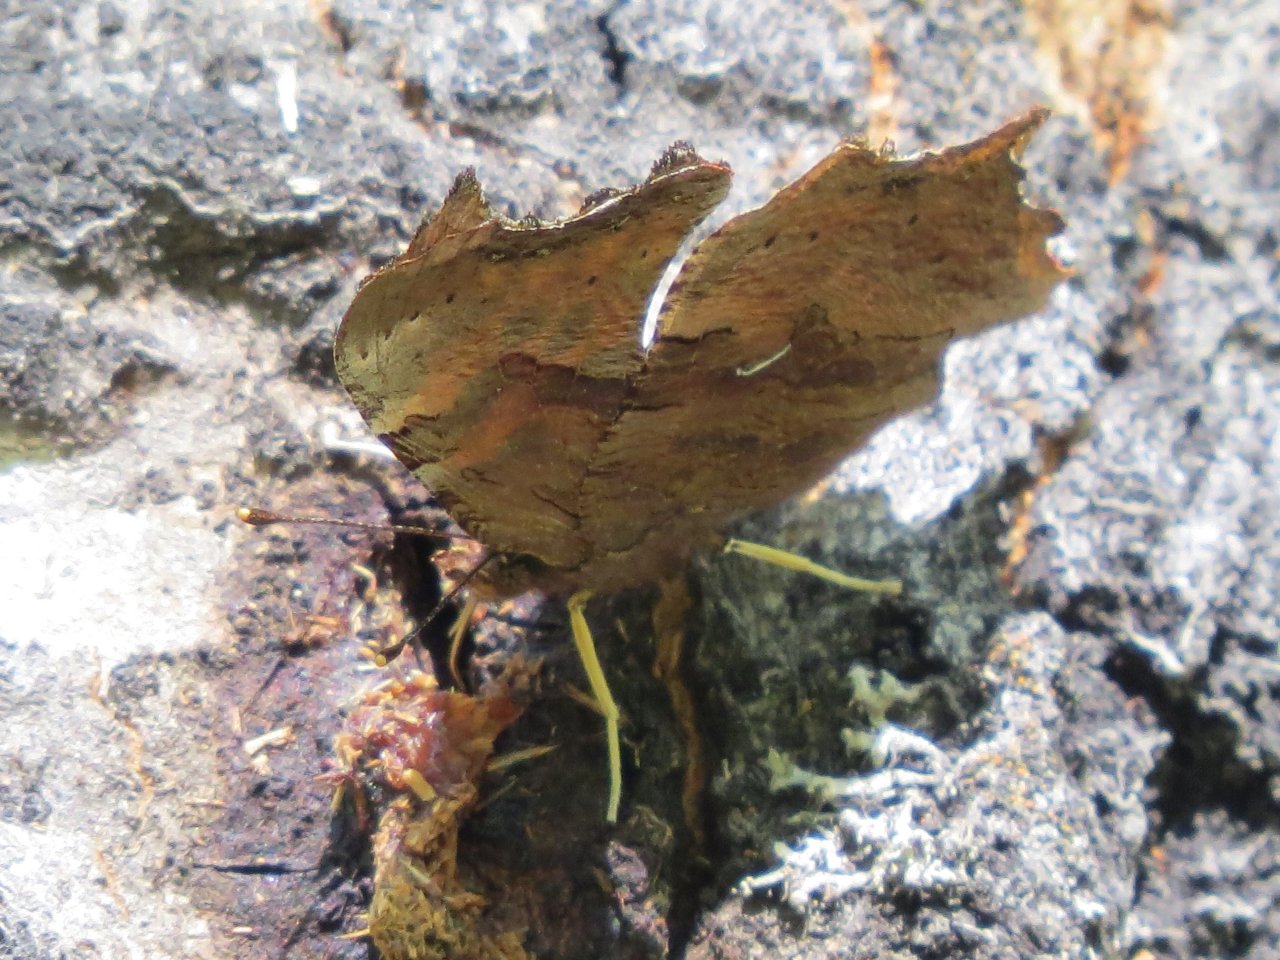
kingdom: Animalia
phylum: Arthropoda
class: Insecta
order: Lepidoptera
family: Nymphalidae
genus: Polygonia
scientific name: Polygonia comma
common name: Eastern Comma
